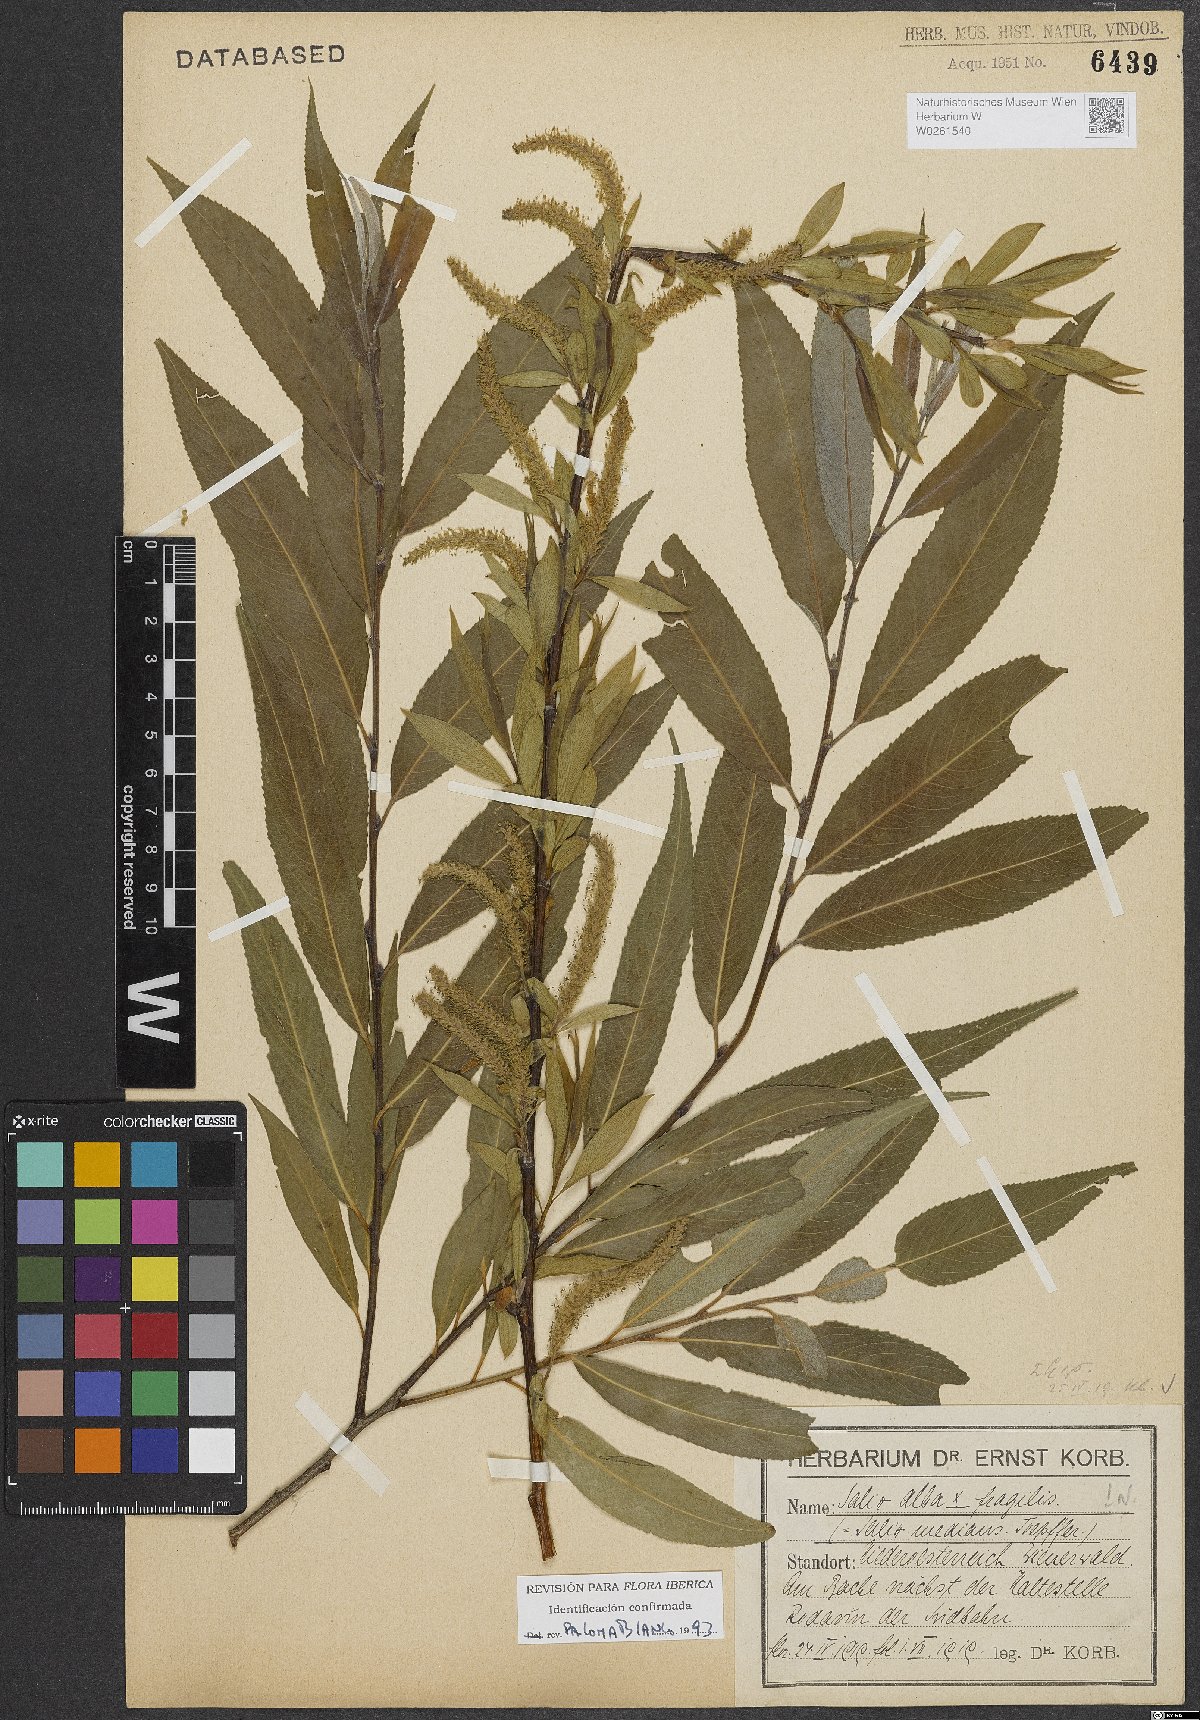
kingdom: Plantae
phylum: Tracheophyta
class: Magnoliopsida
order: Malpighiales
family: Salicaceae
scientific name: Salicaceae
